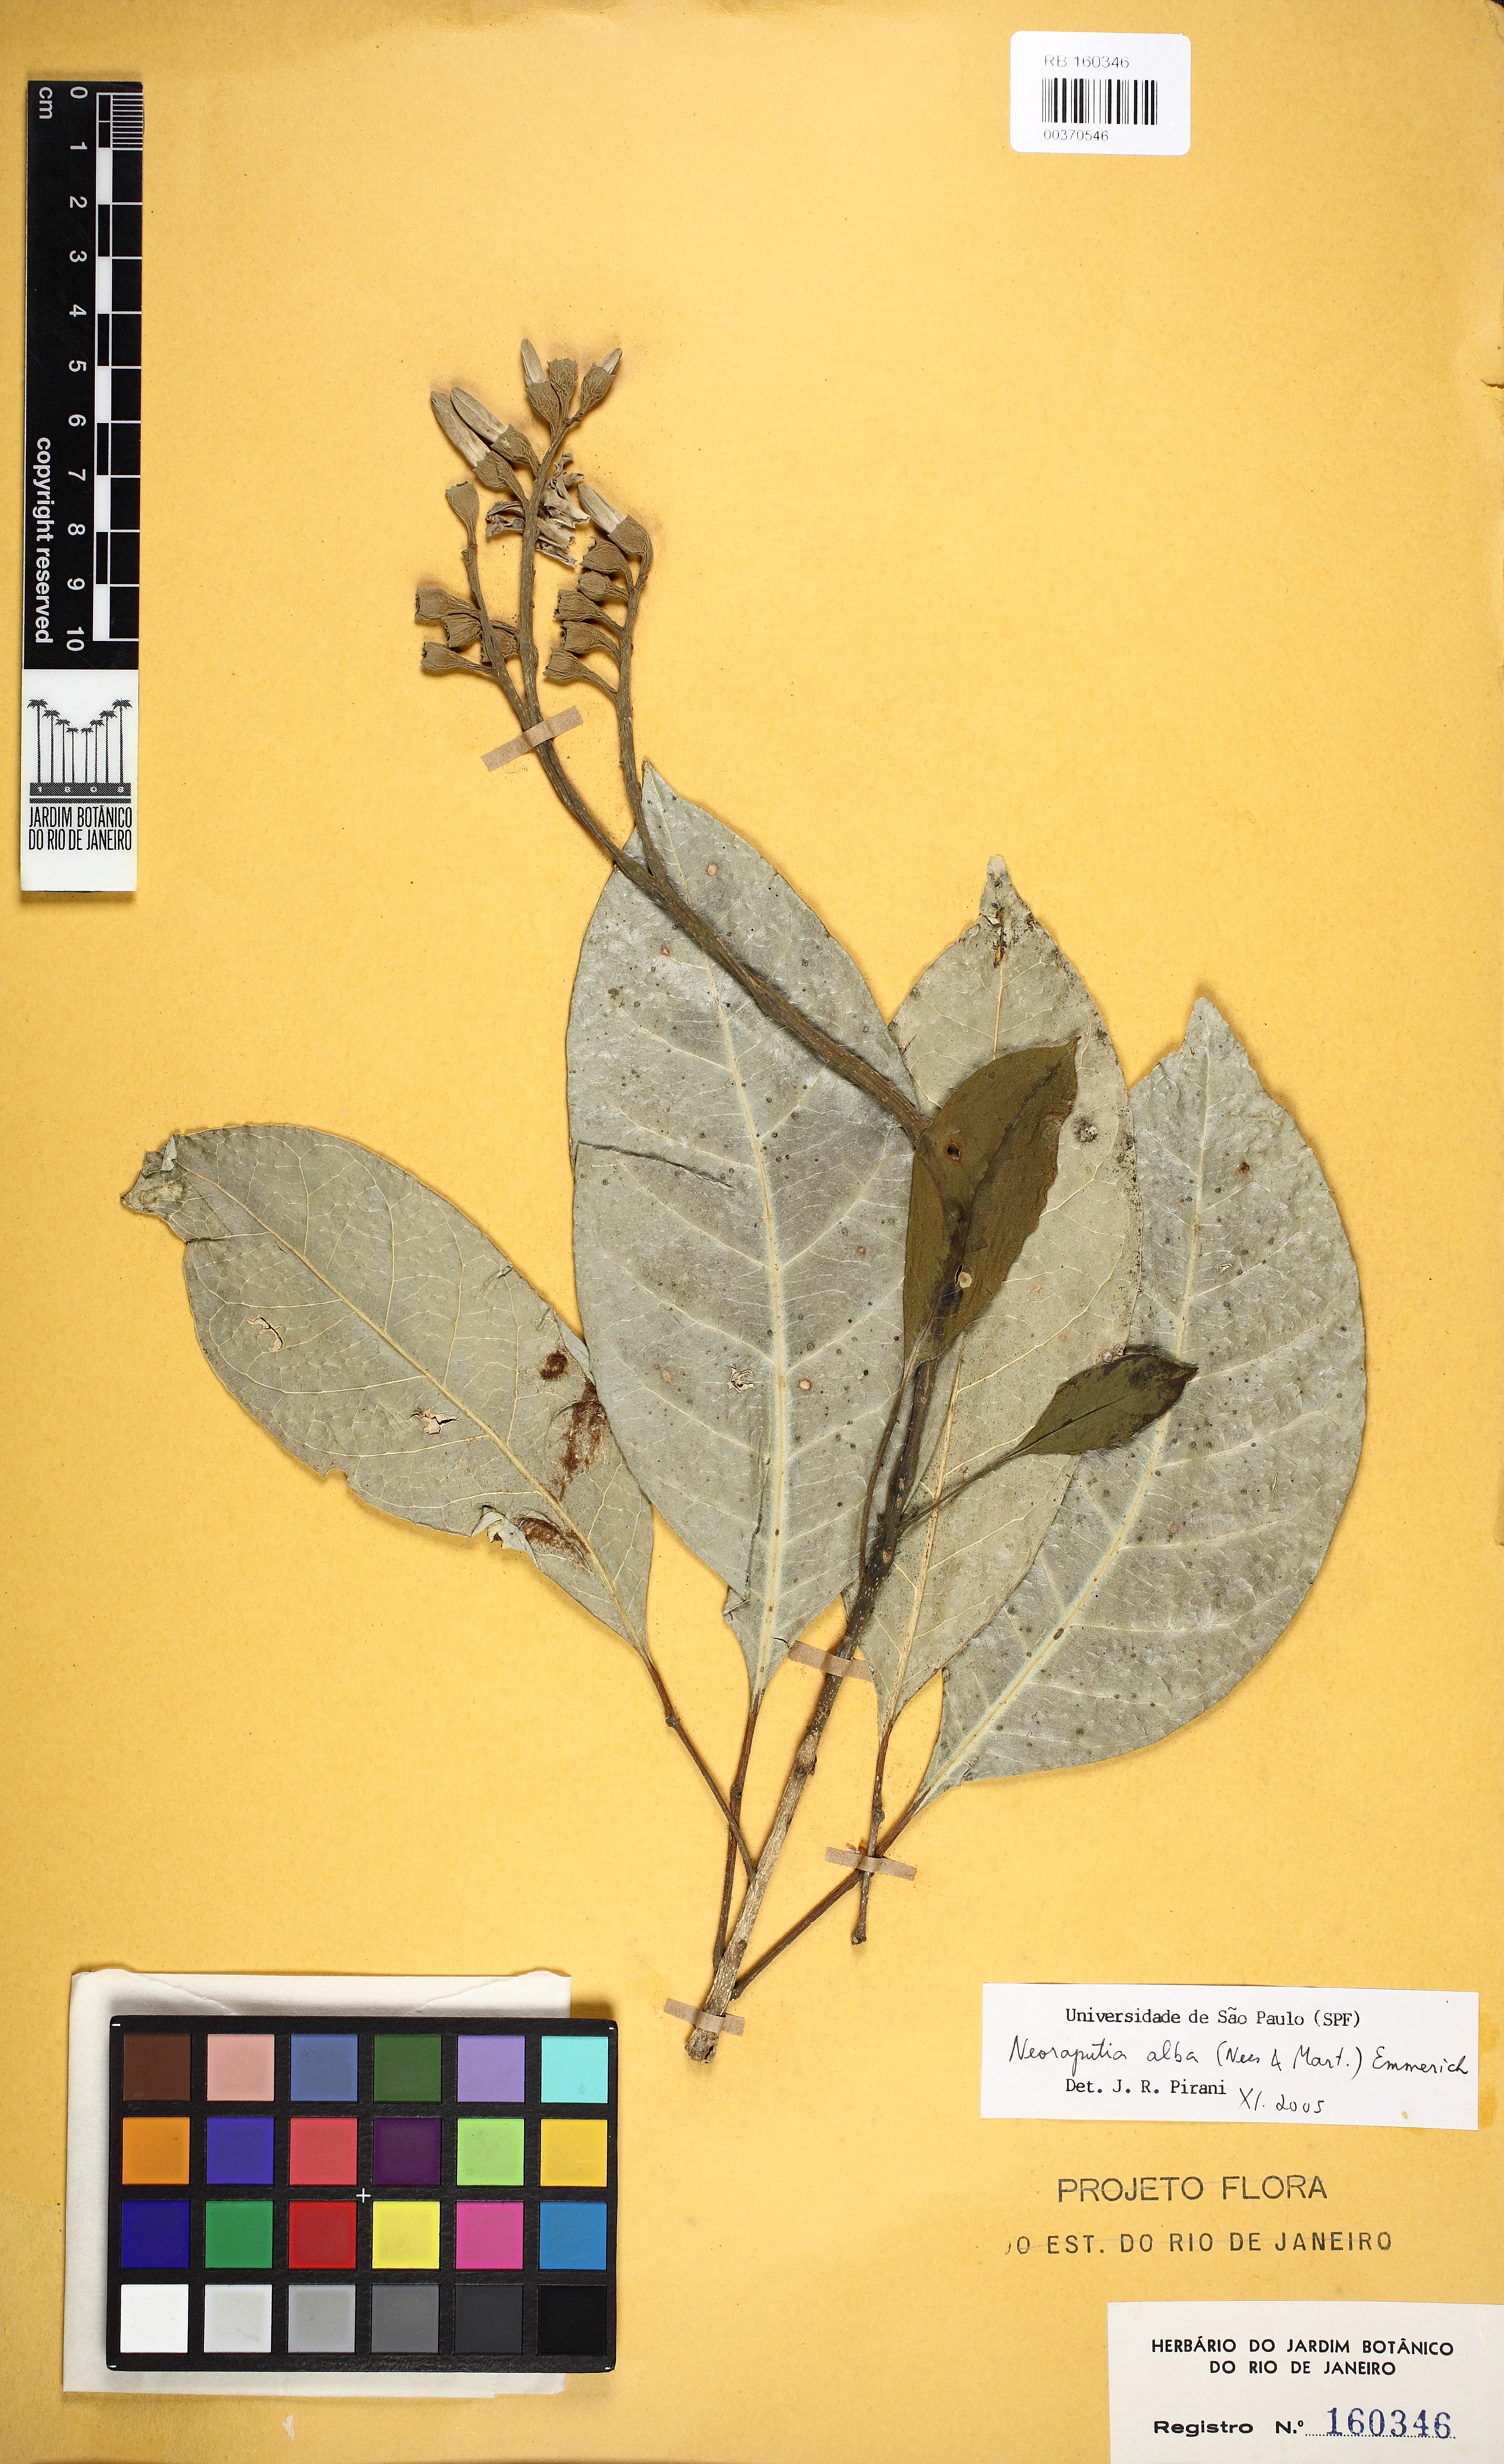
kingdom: Plantae
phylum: Tracheophyta
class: Magnoliopsida
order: Sapindales
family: Rutaceae
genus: Neoraputia
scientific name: Neoraputia alba
